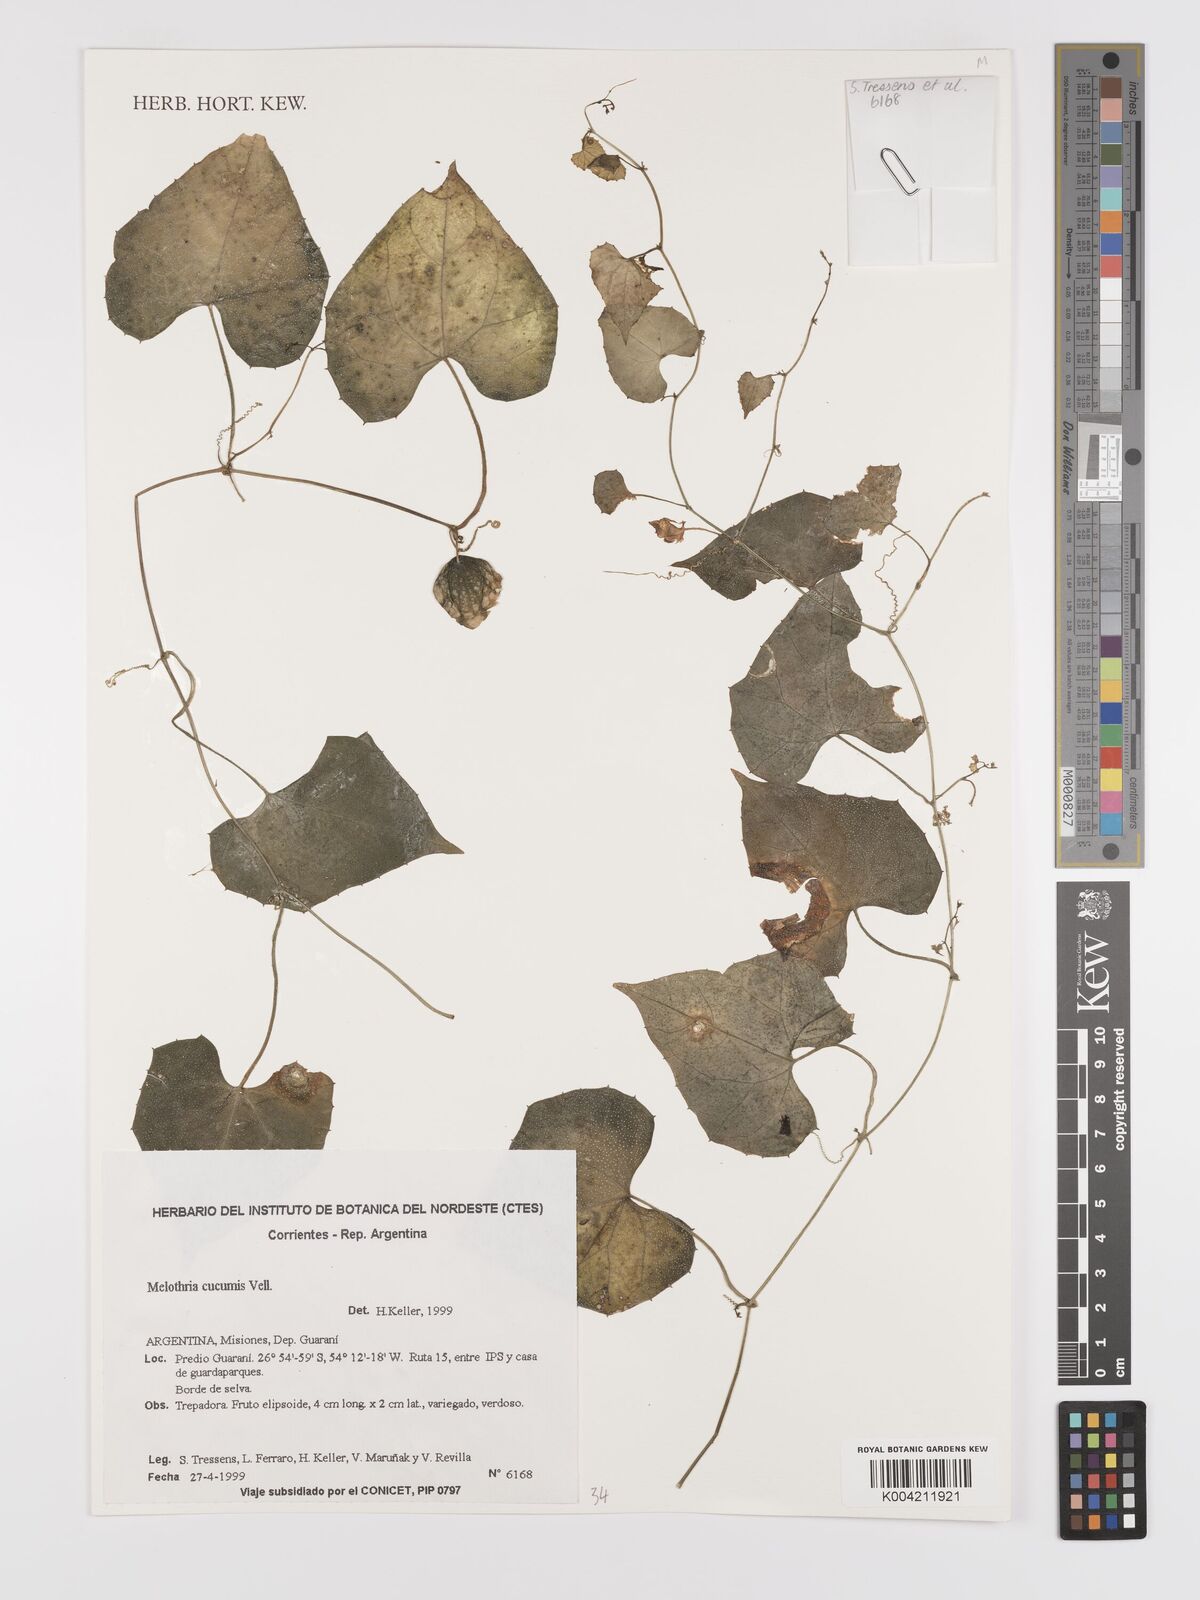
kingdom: Plantae
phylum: Tracheophyta
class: Magnoliopsida
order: Cucurbitales
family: Cucurbitaceae
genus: Melothria
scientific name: Melothria cucumis
